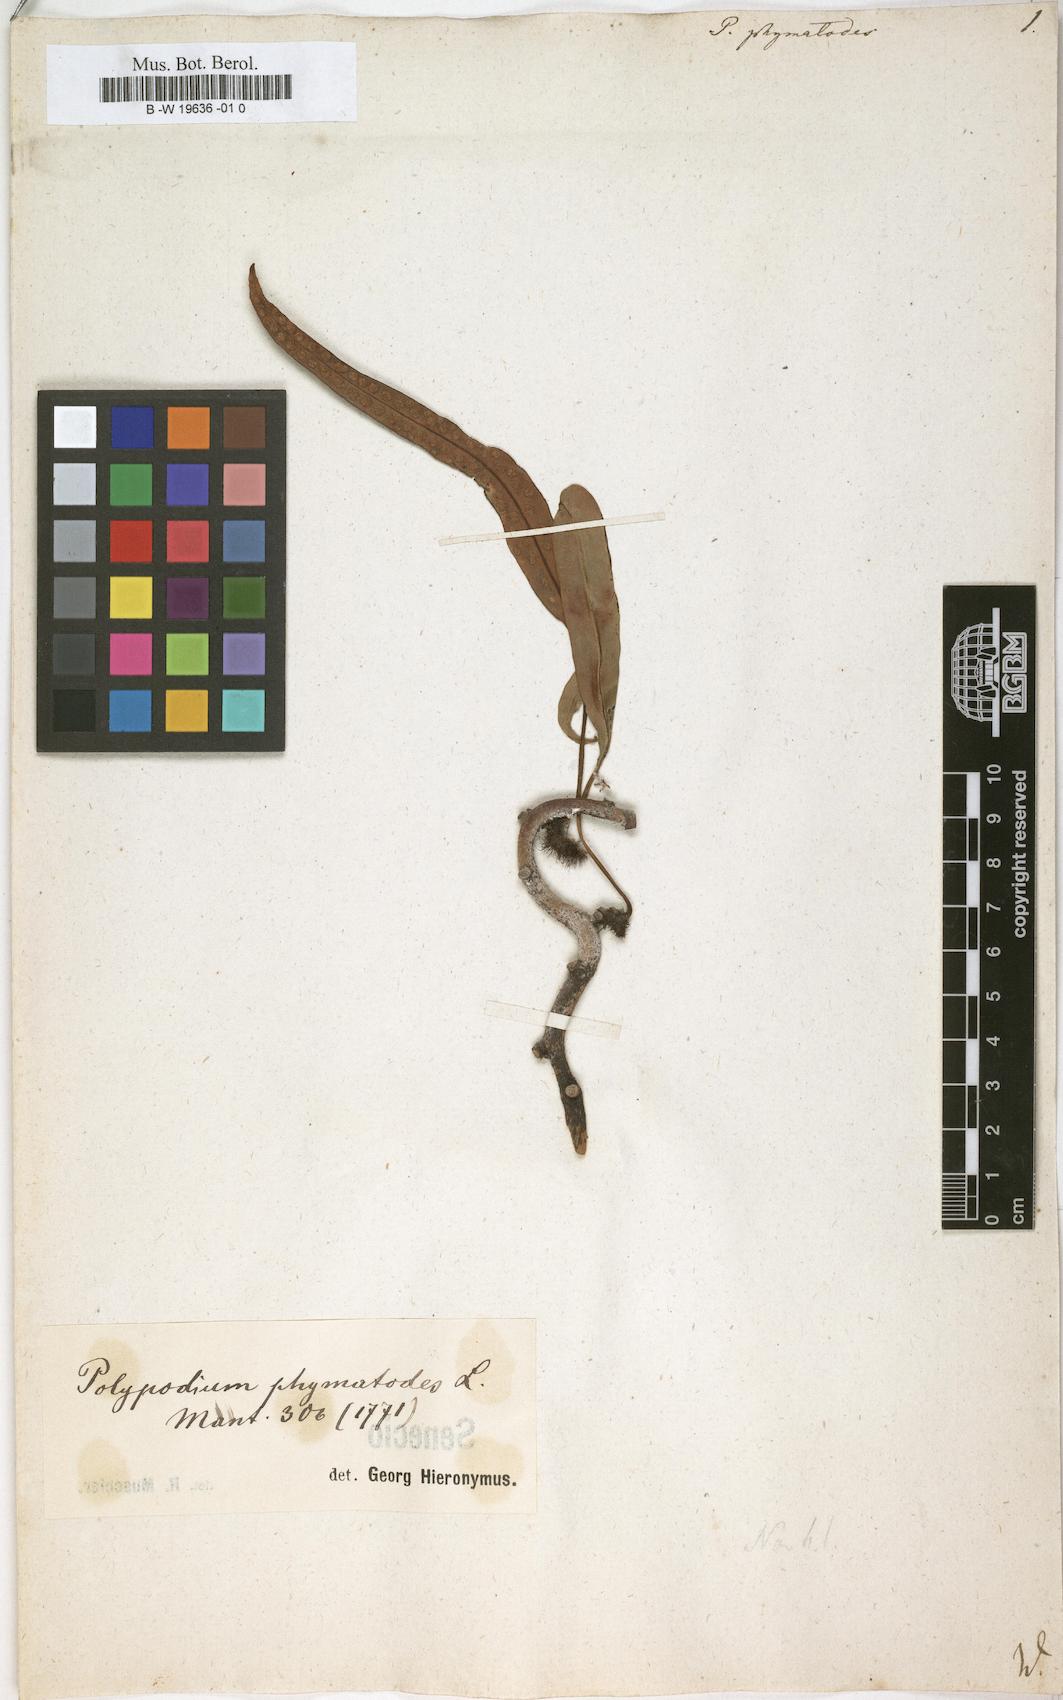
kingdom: Plantae
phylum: Tracheophyta
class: Polypodiopsida
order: Polypodiales
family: Polypodiaceae
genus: Microsorum
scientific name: Microsorum scolopendria
